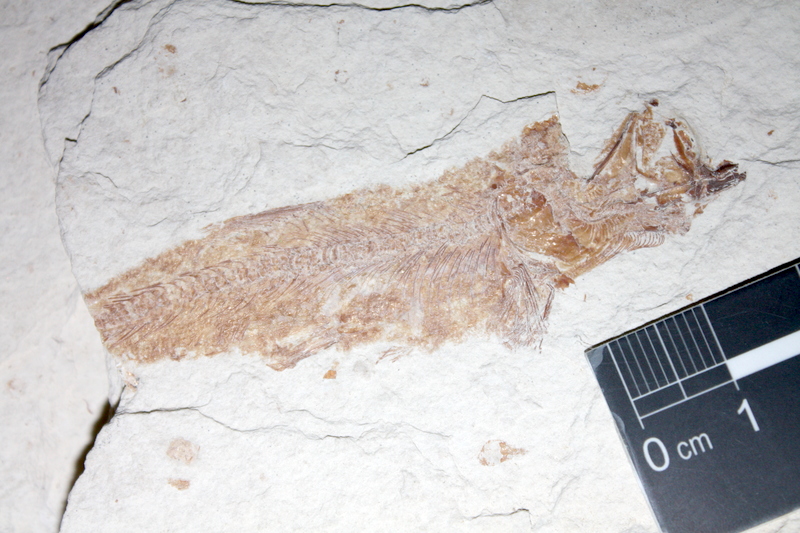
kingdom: Animalia
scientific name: Animalia
